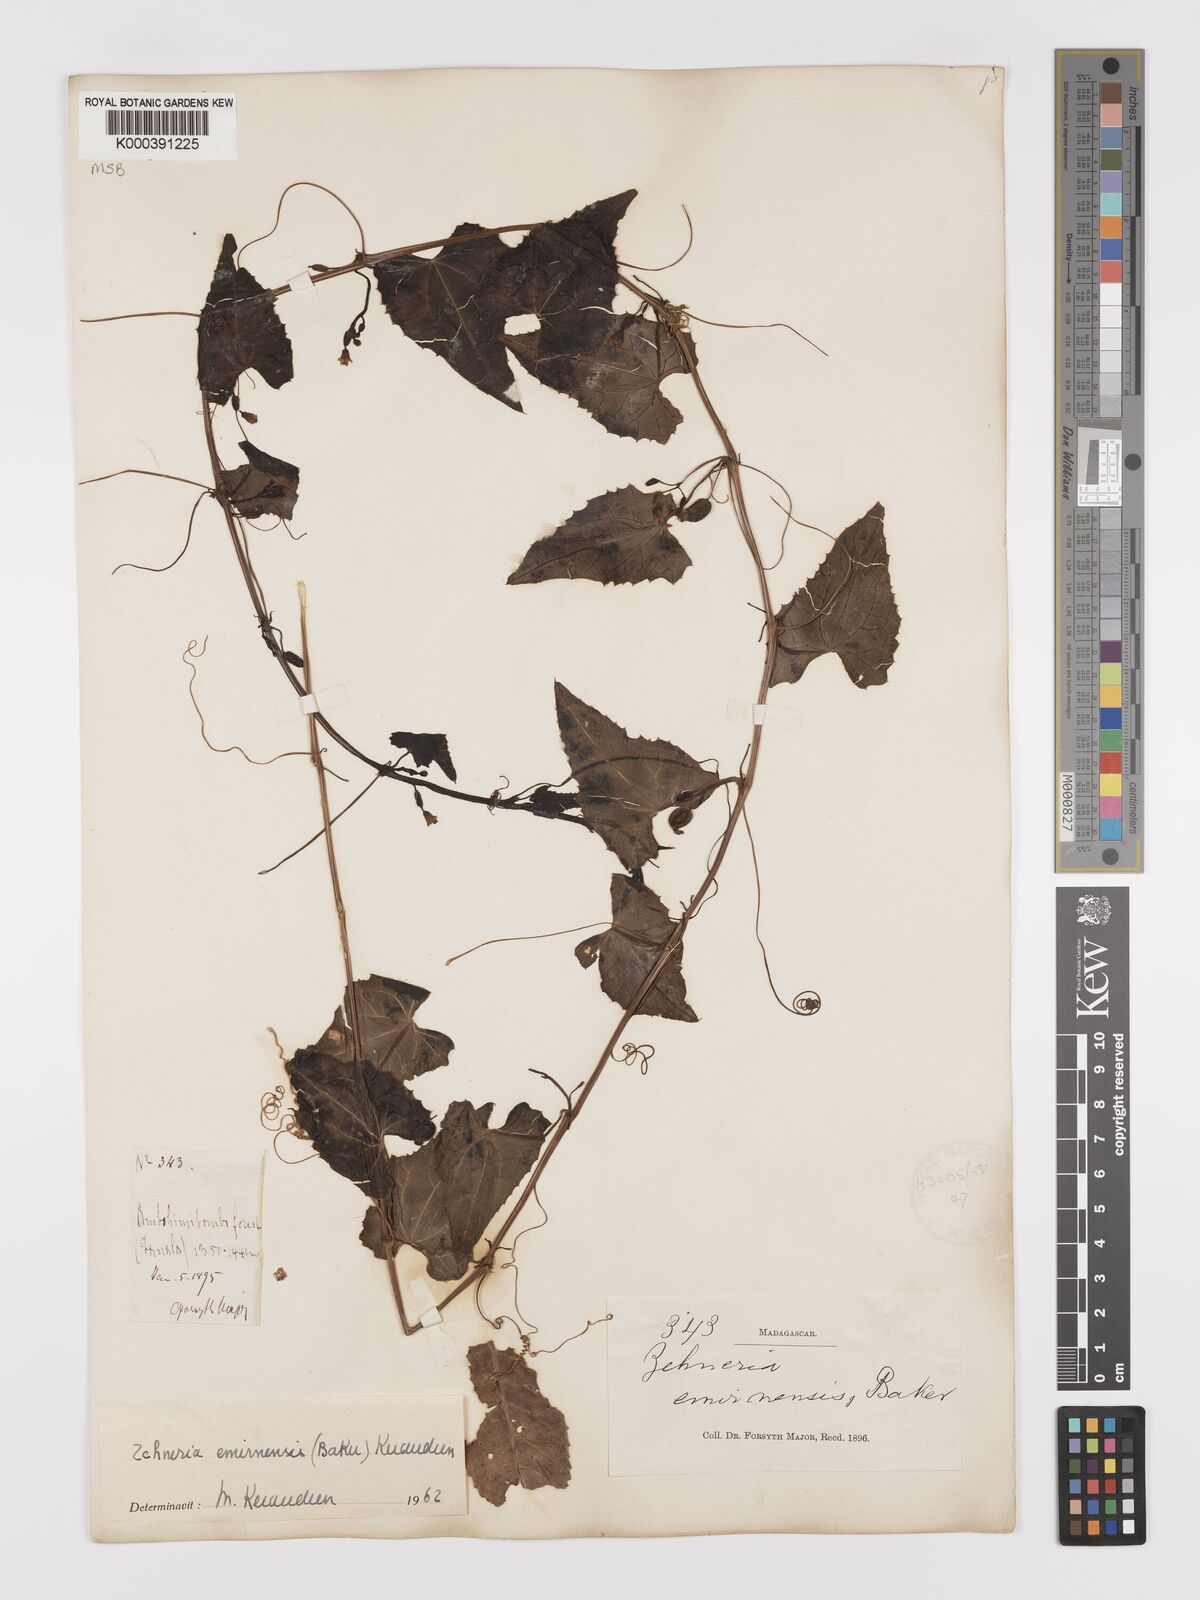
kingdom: Plantae
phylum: Tracheophyta
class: Magnoliopsida
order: Cucurbitales
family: Cucurbitaceae
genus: Zehneria
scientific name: Zehneria emirnensis
